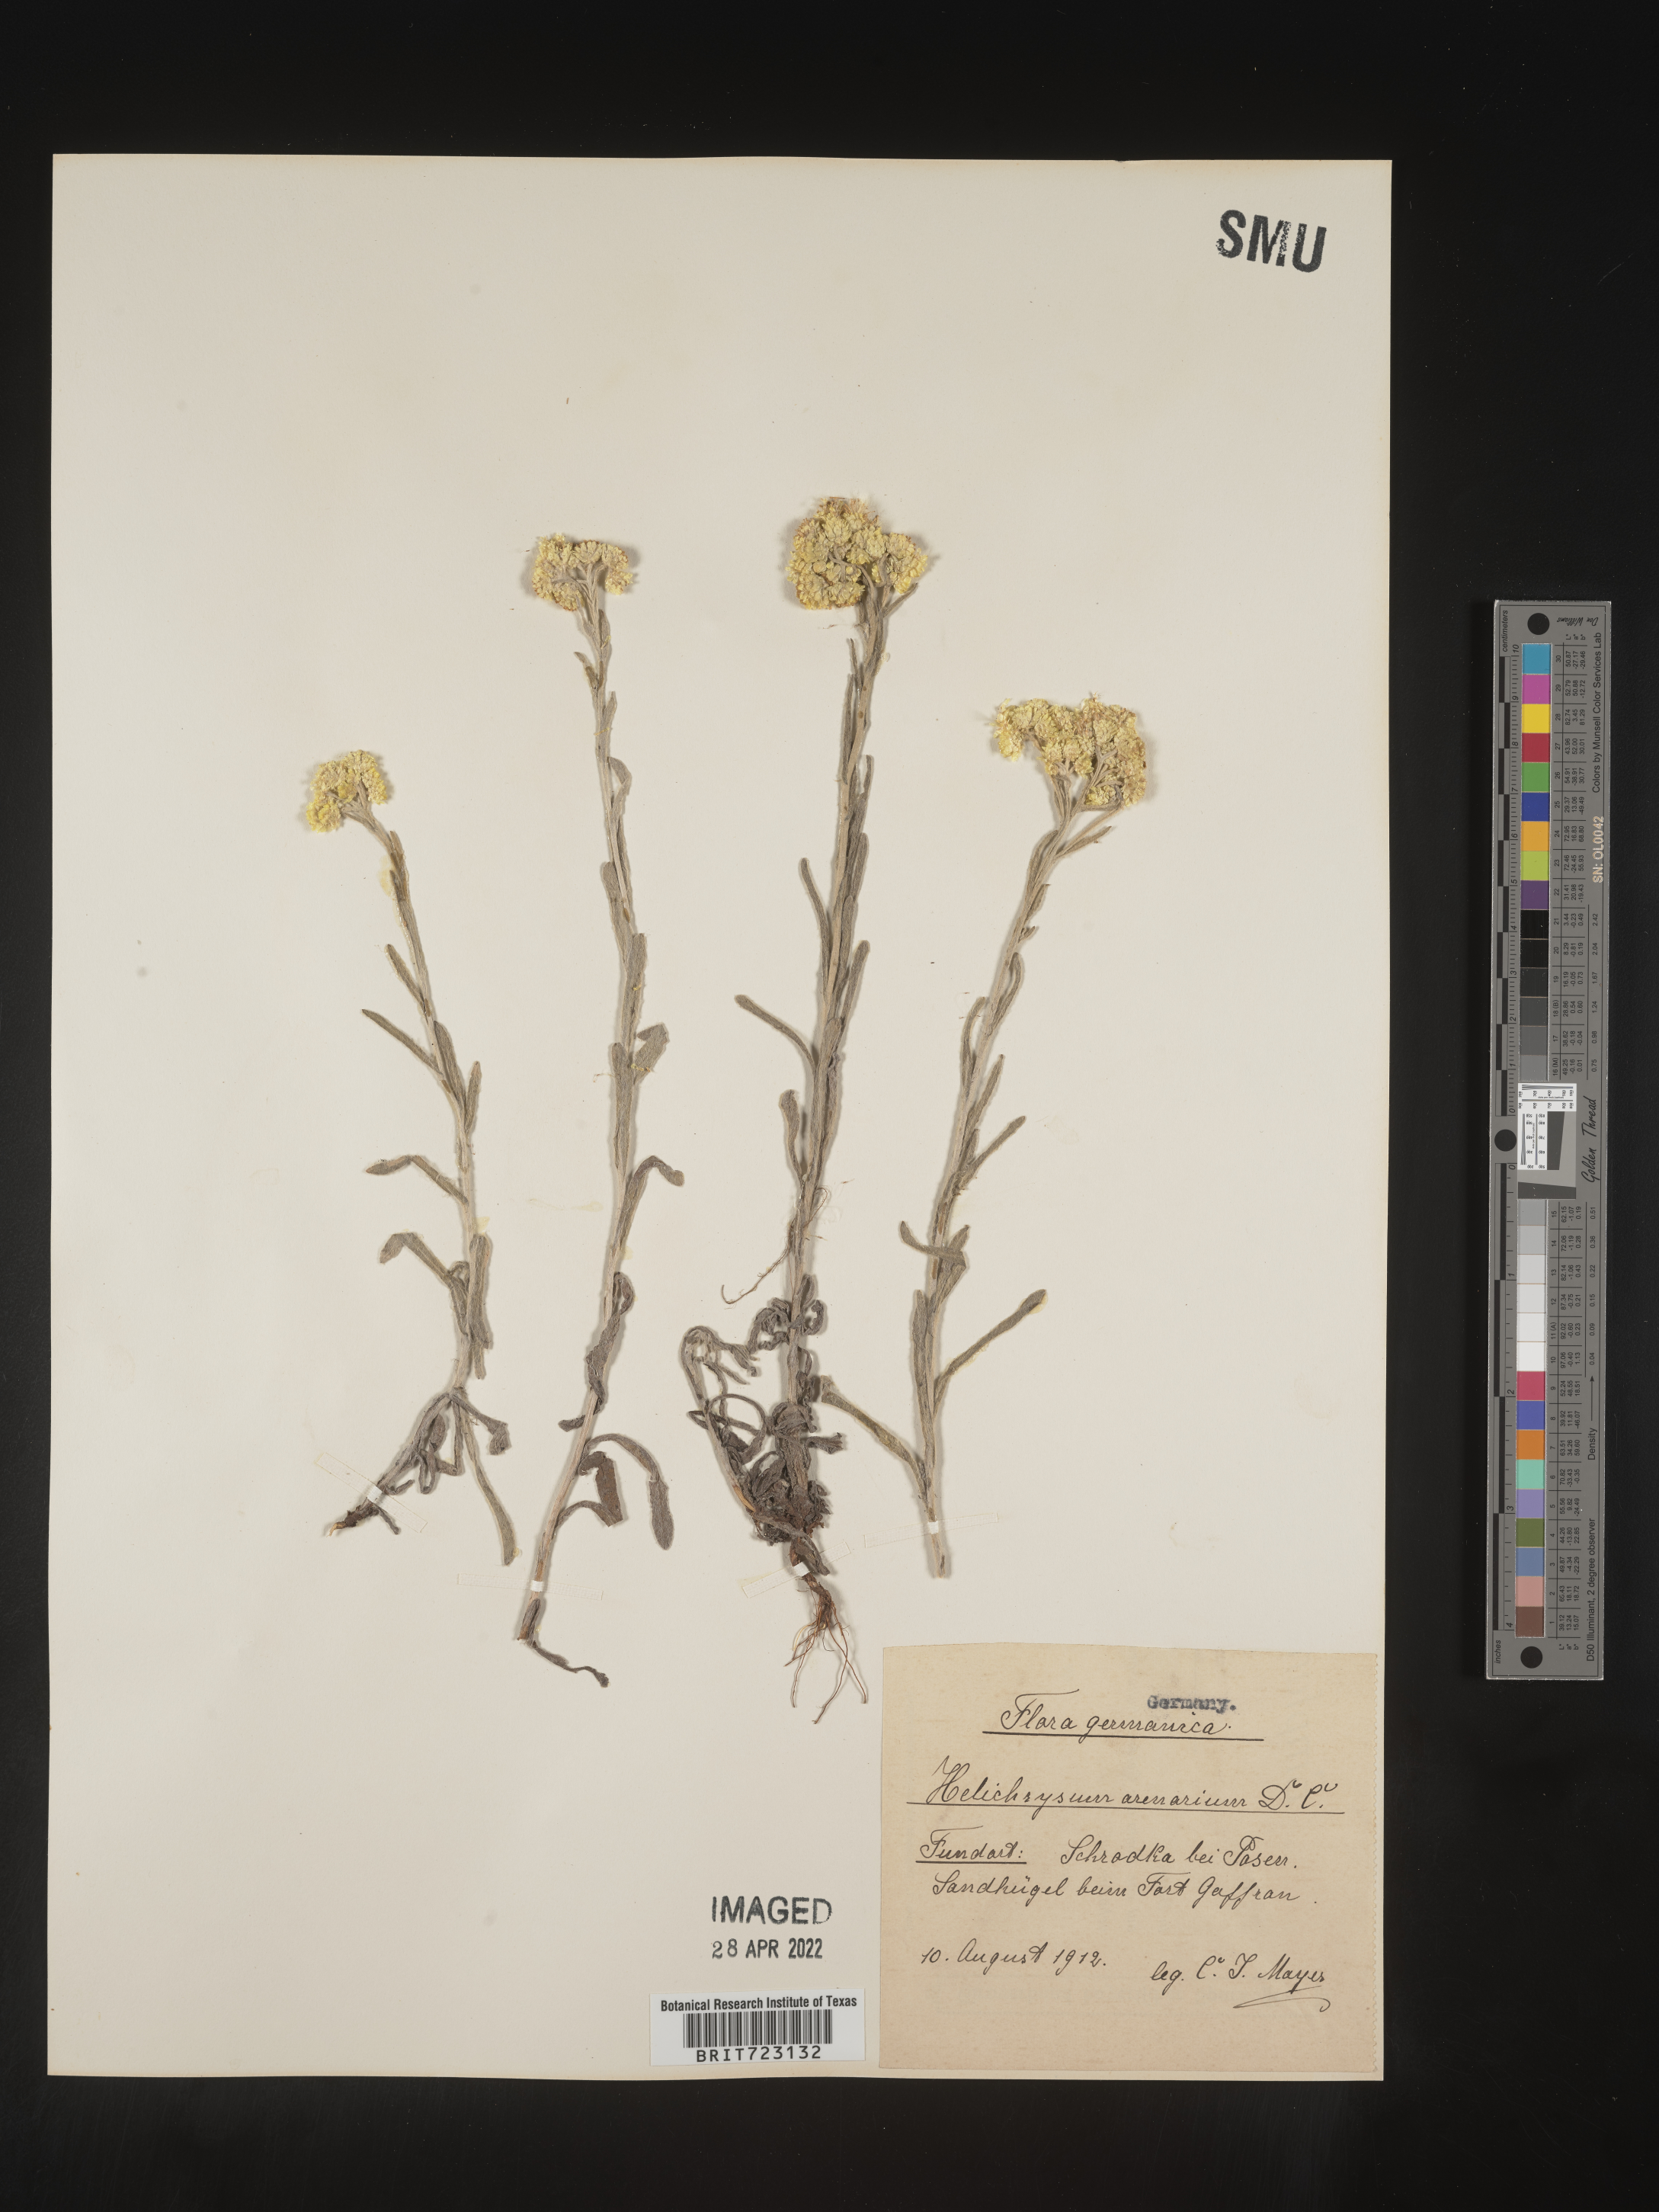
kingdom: Plantae
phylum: Tracheophyta
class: Magnoliopsida
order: Asterales
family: Asteraceae
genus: Helichrysum
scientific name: Helichrysum arenarium
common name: Strawflower
